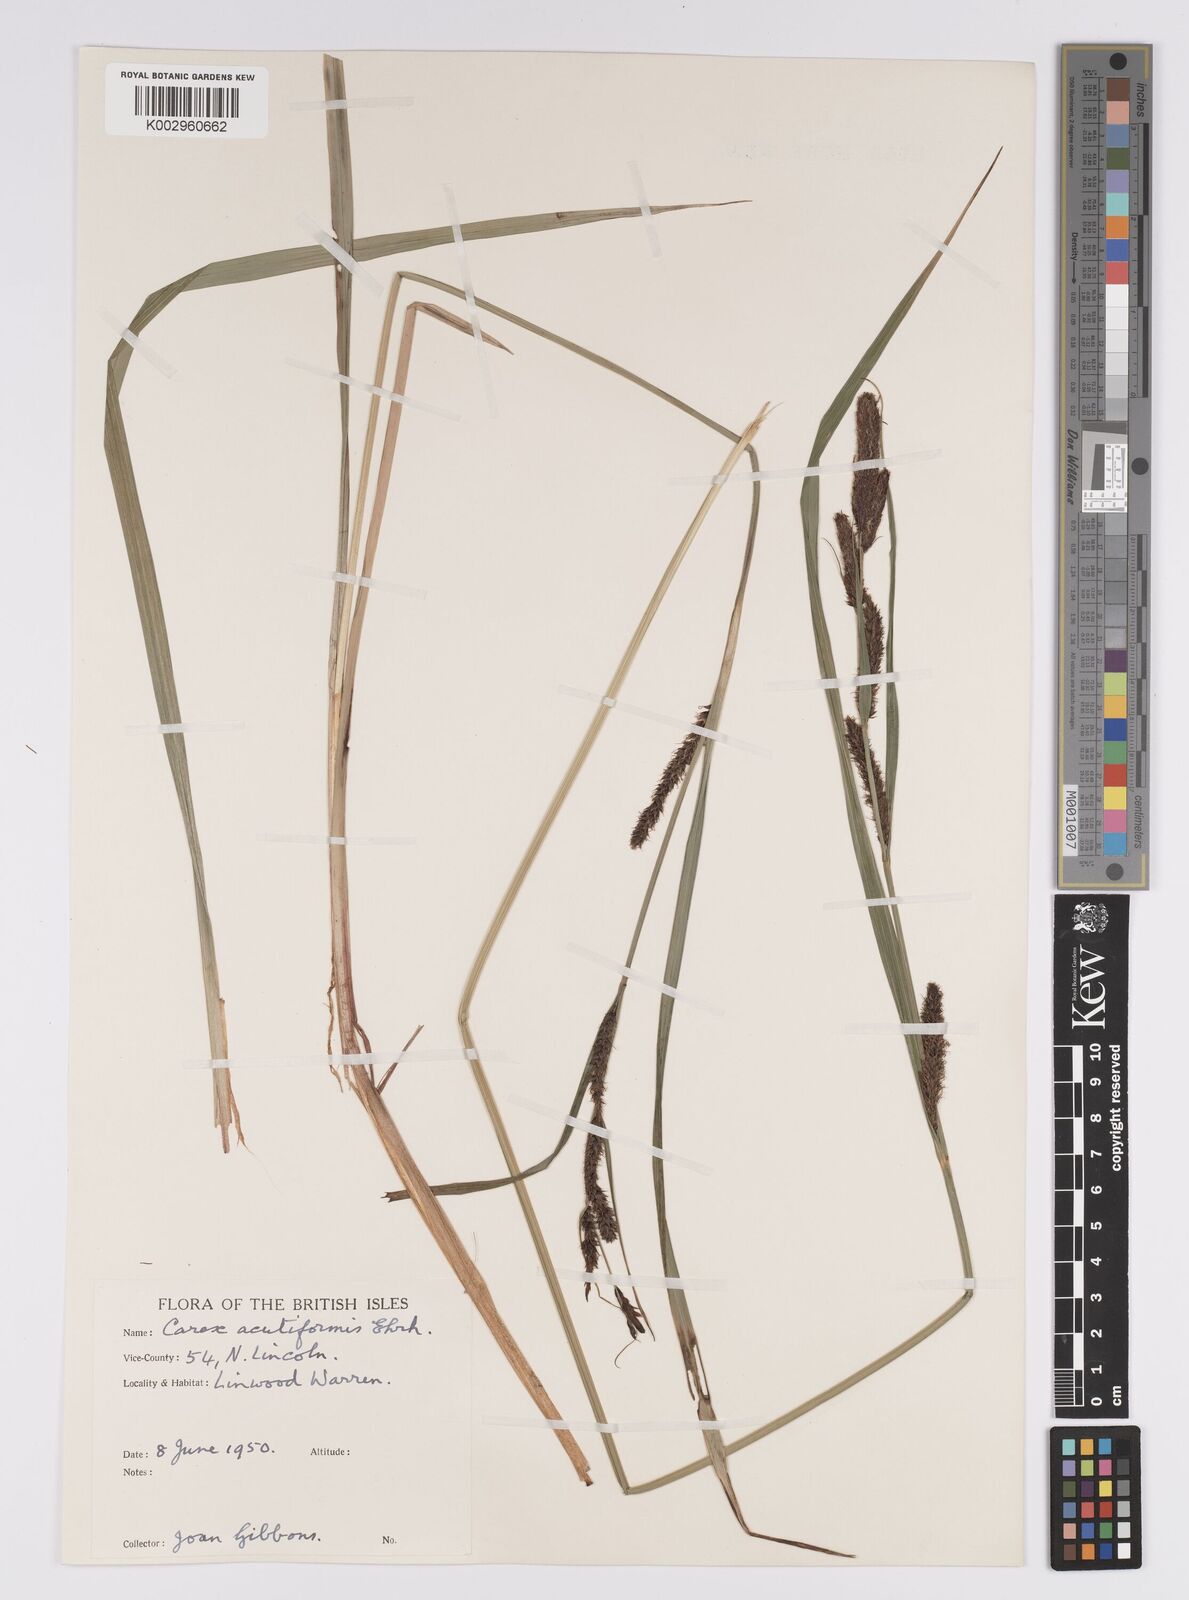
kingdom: Plantae
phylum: Tracheophyta
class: Liliopsida
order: Poales
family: Cyperaceae
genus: Carex
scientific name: Carex acutiformis
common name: Lesser pond-sedge
